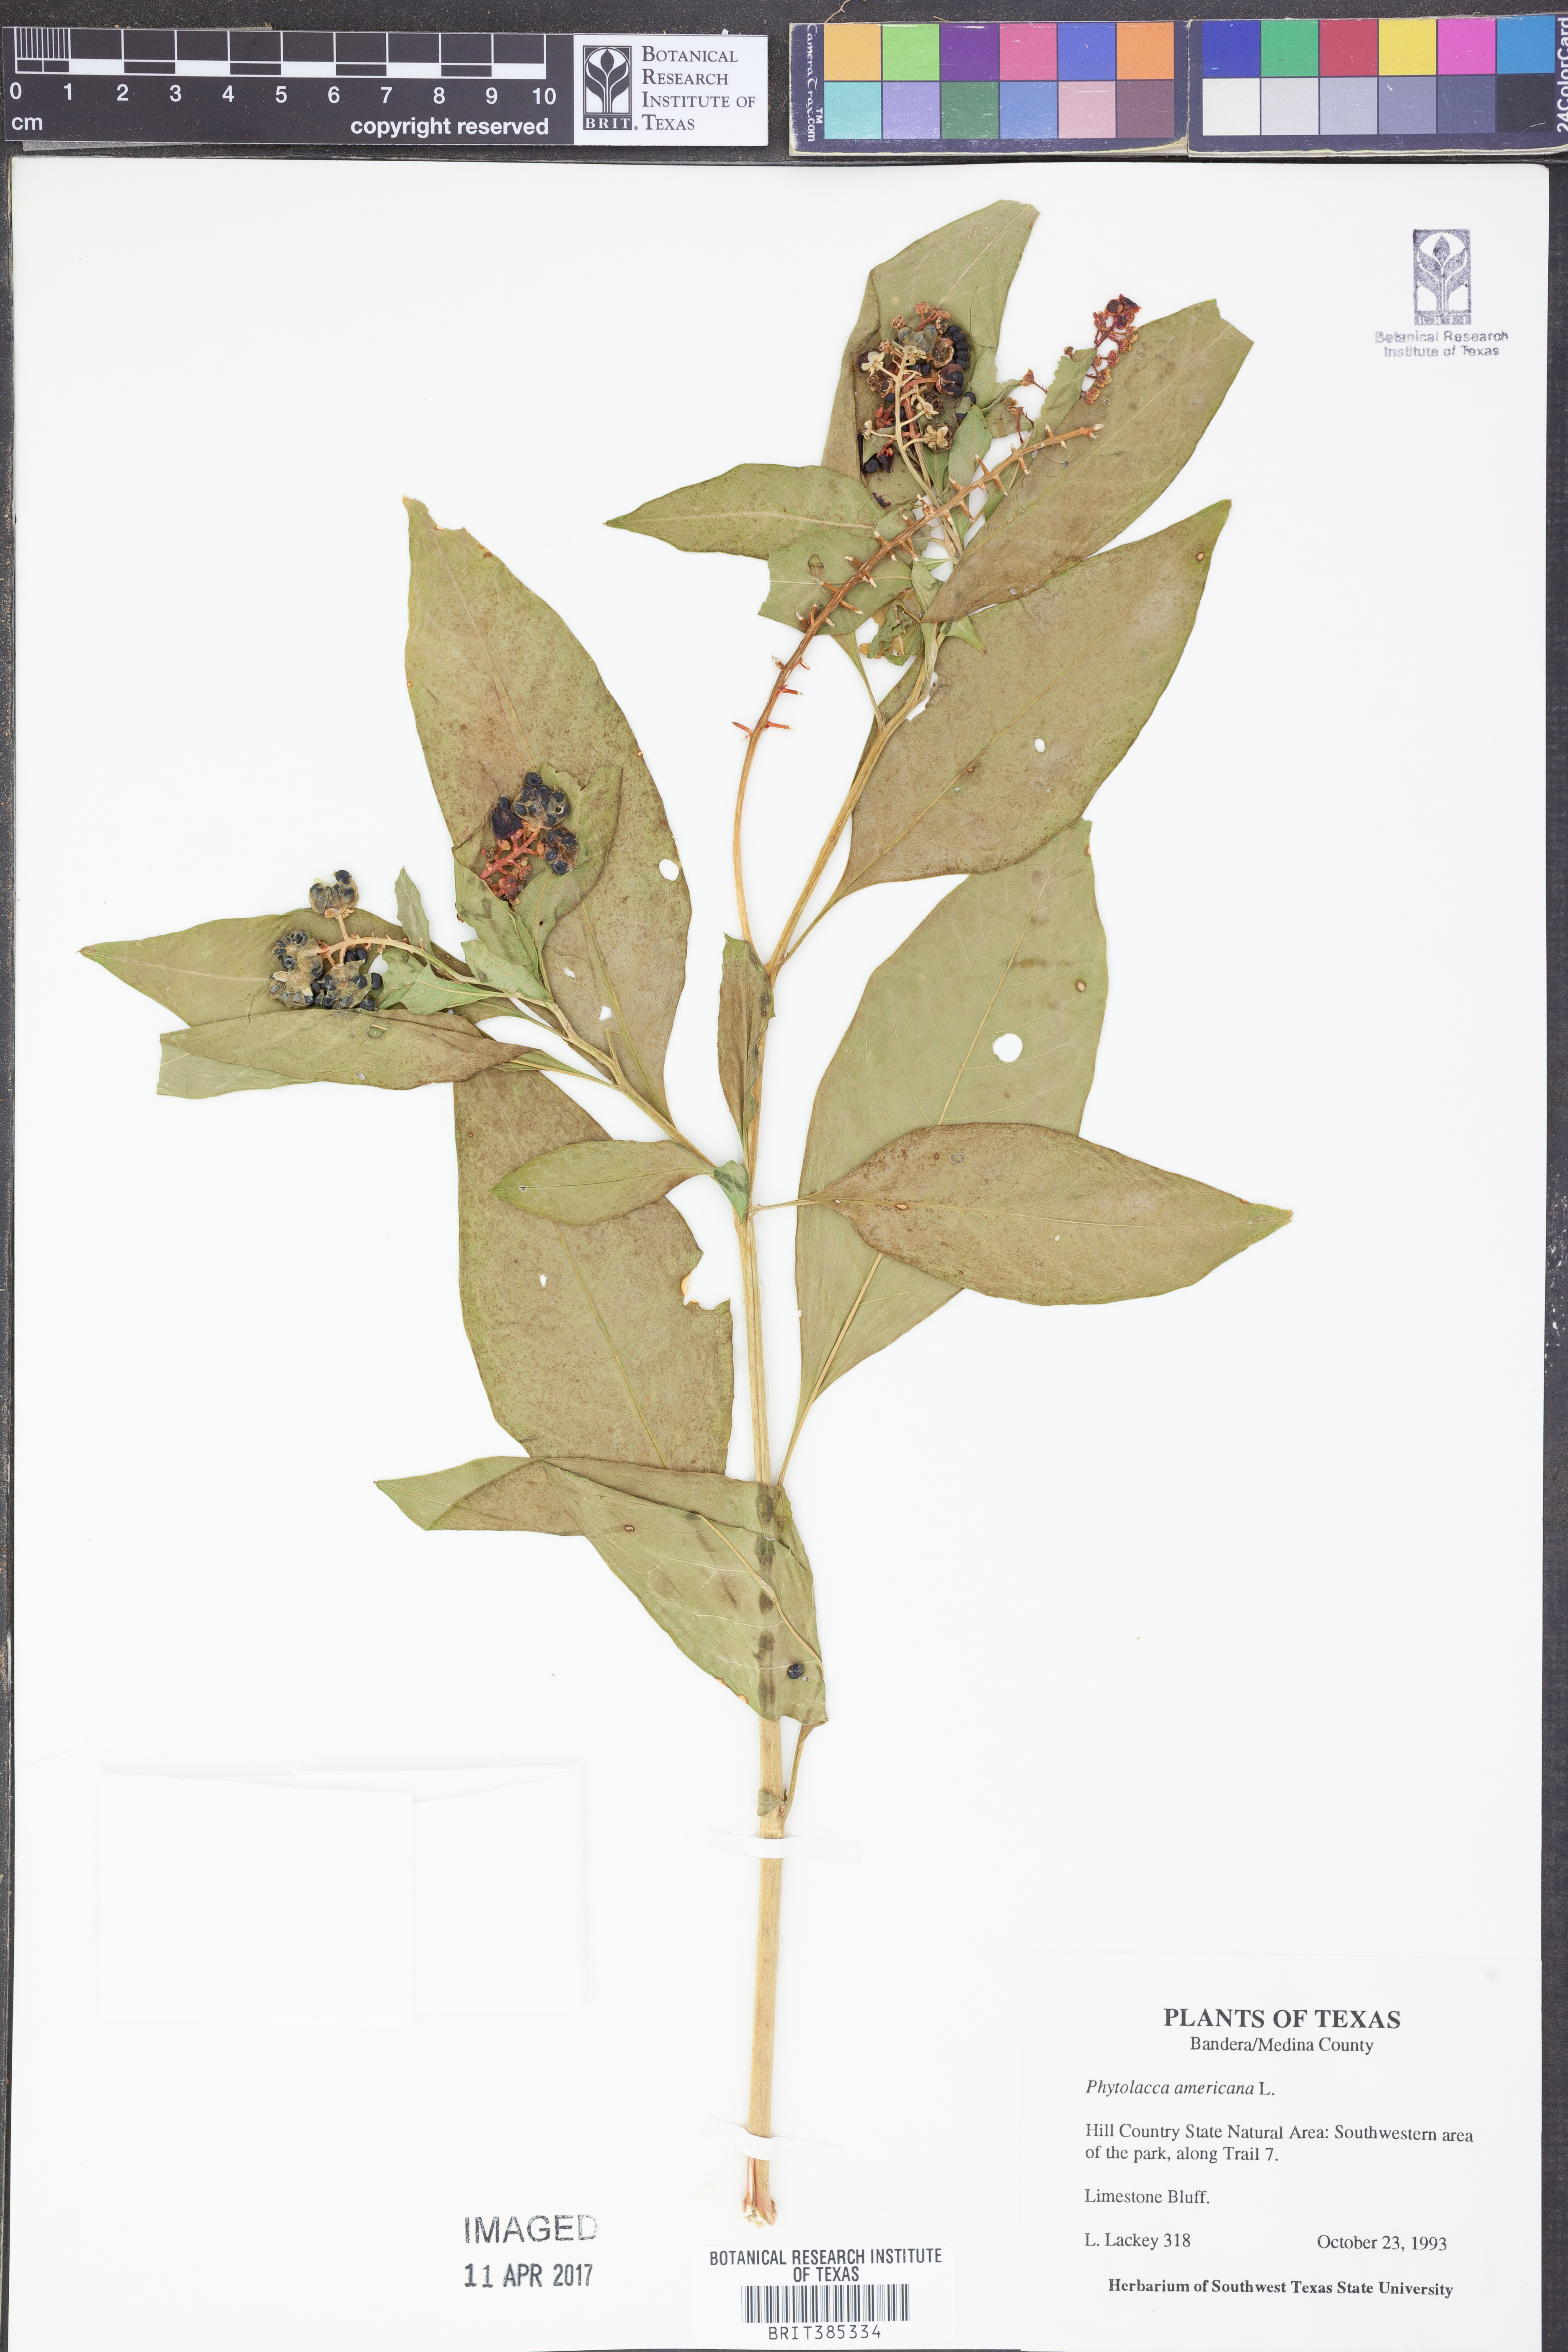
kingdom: Plantae
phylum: Tracheophyta
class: Magnoliopsida
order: Caryophyllales
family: Phytolaccaceae
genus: Phytolacca
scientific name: Phytolacca americana
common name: American pokeweed
